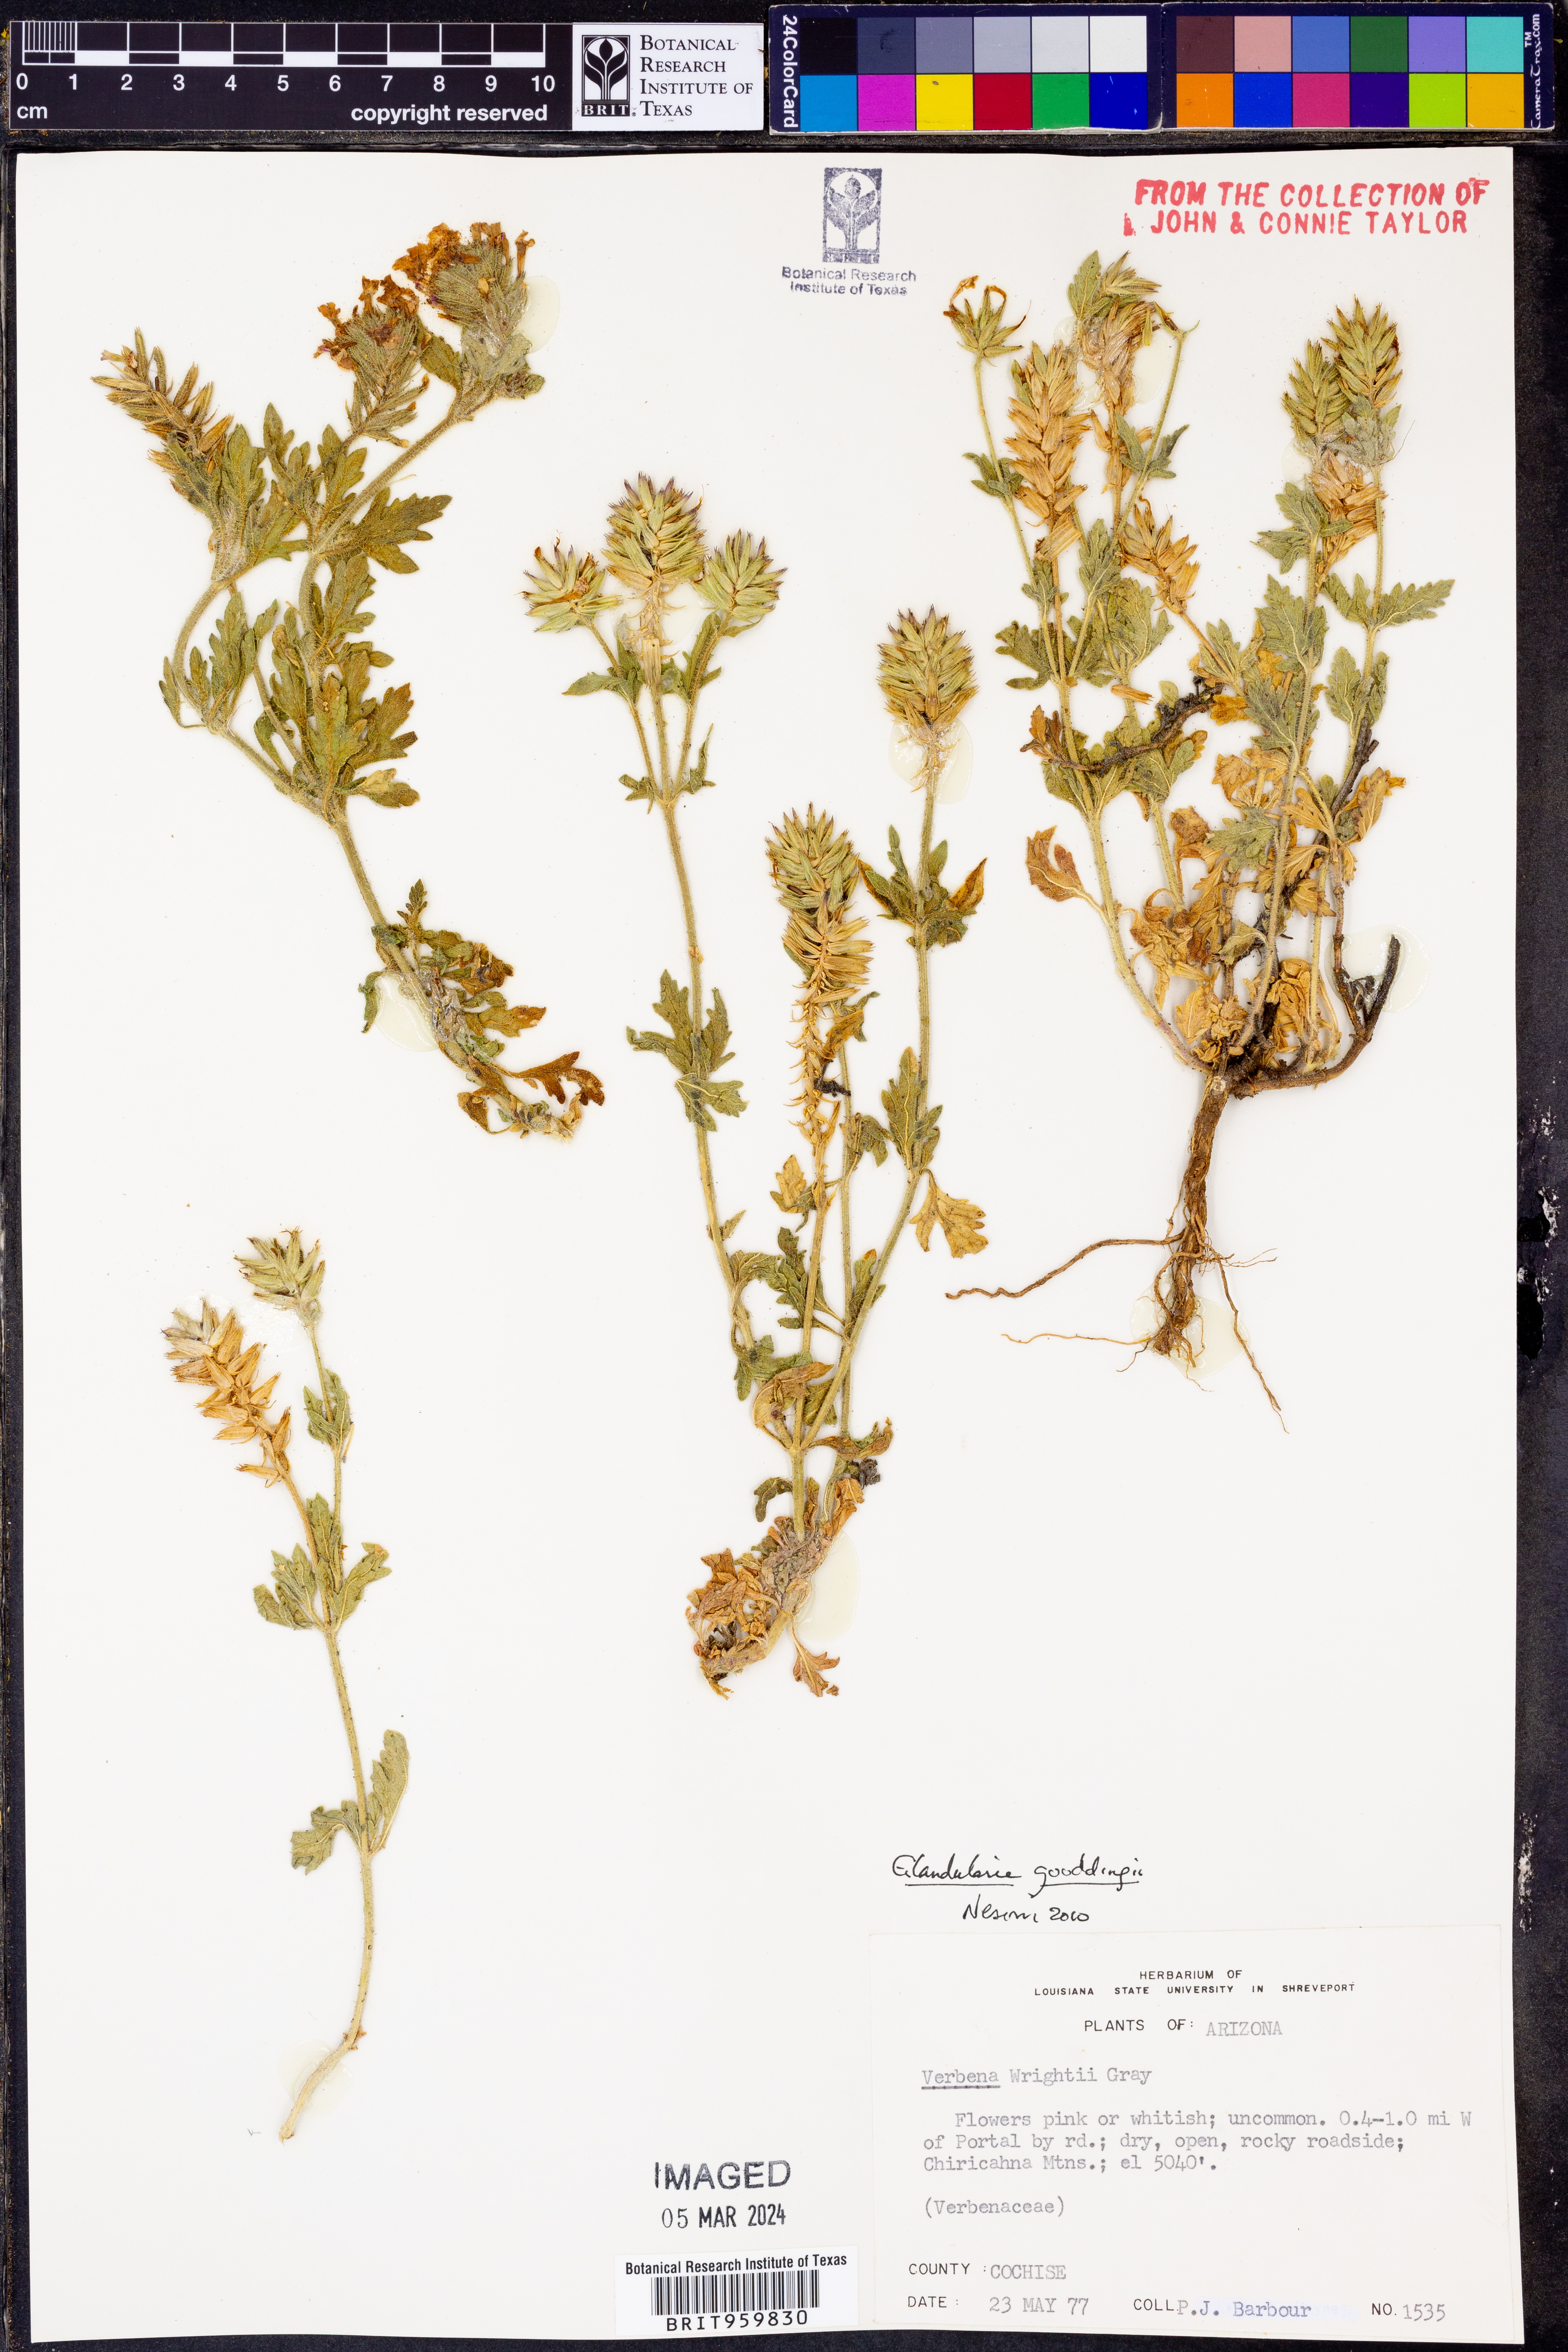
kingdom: Plantae
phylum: Tracheophyta
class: Magnoliopsida
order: Lamiales
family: Verbenaceae
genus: Verbena
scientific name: Verbena gooddingii
